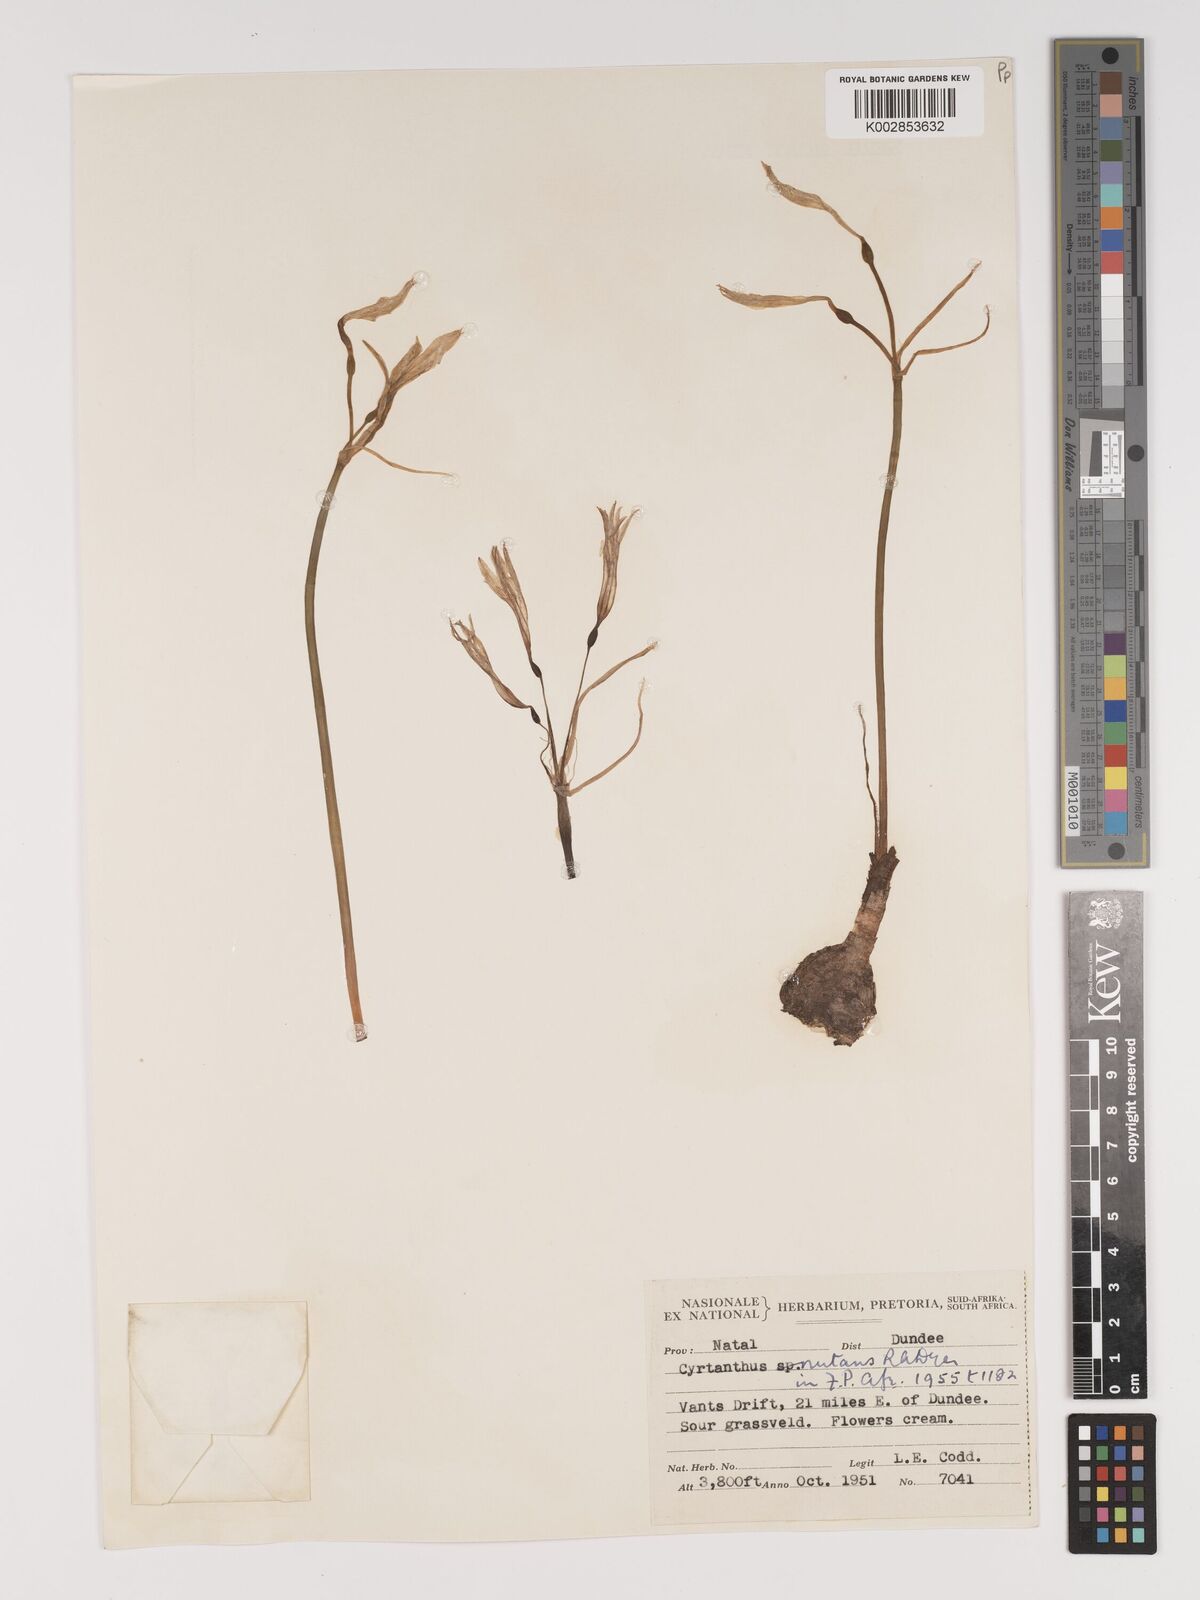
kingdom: Plantae
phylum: Tracheophyta
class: Liliopsida
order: Asparagales
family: Amaryllidaceae
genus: Cyrtanthus
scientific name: Cyrtanthus nutans
